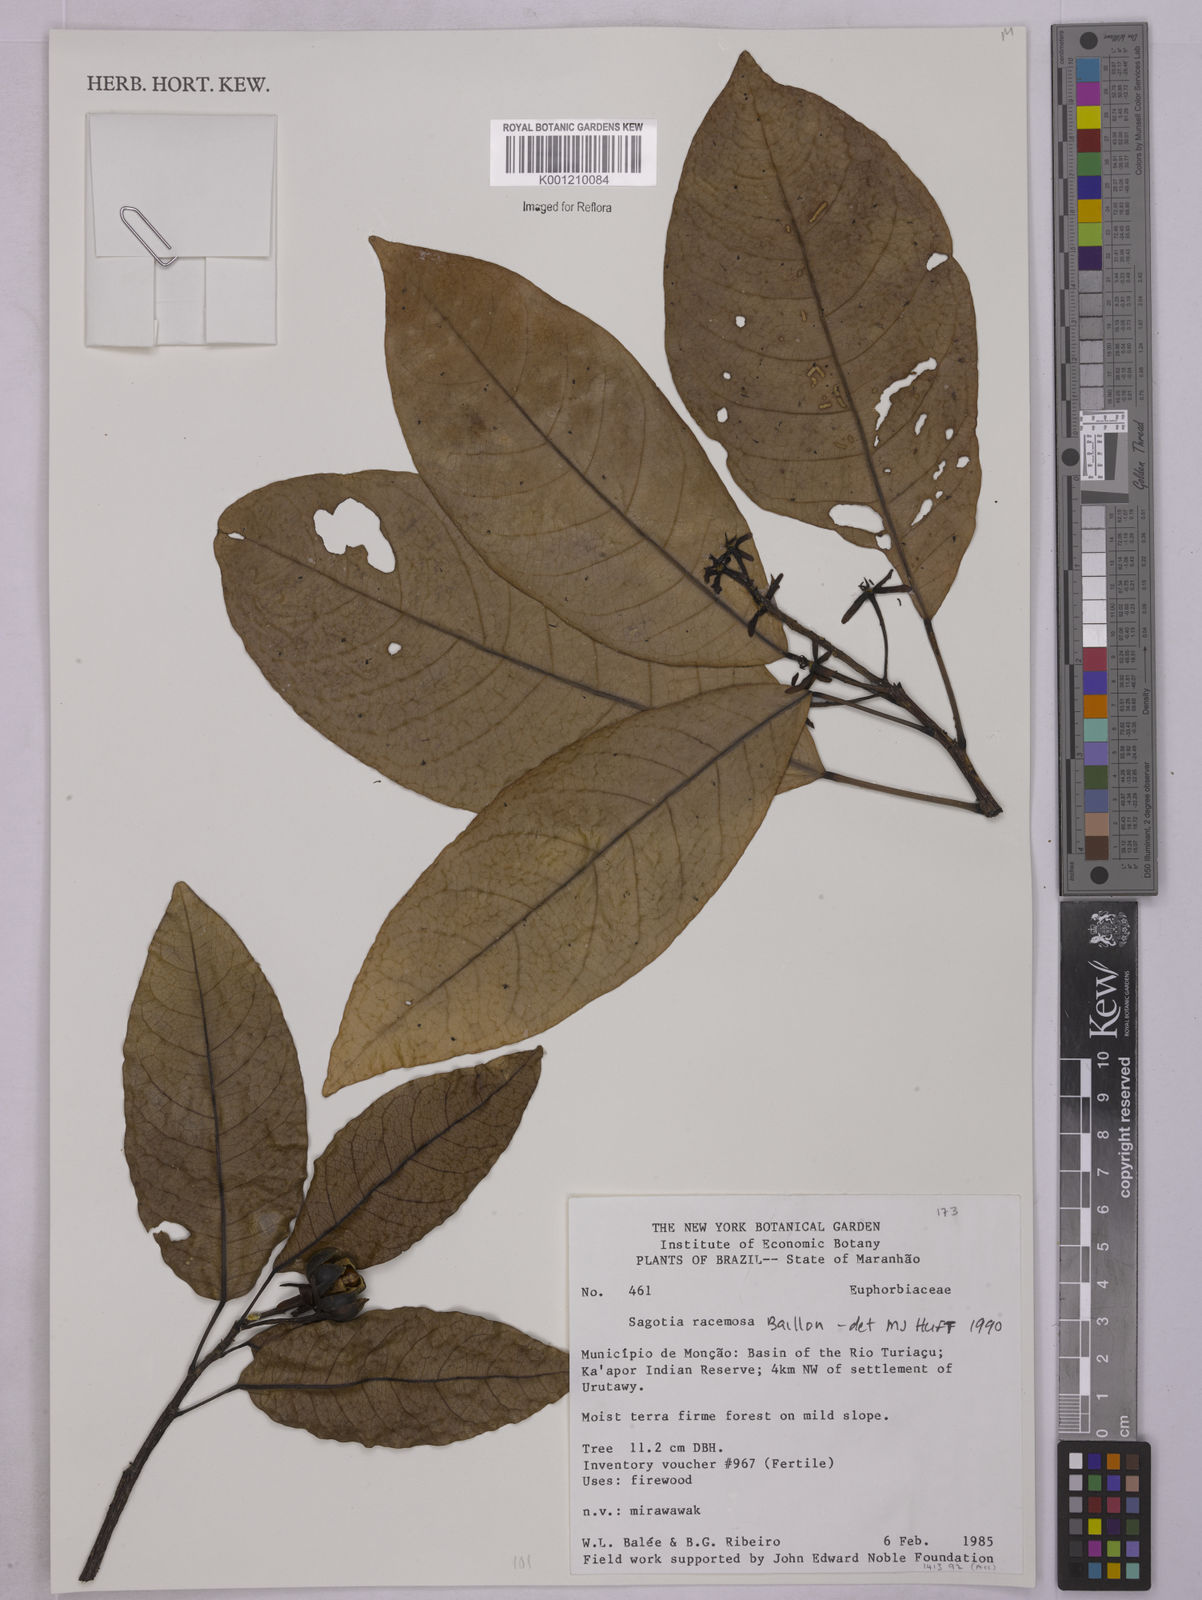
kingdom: Plantae
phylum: Tracheophyta
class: Magnoliopsida
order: Malpighiales
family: Euphorbiaceae
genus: Sagotia
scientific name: Sagotia racemosa
